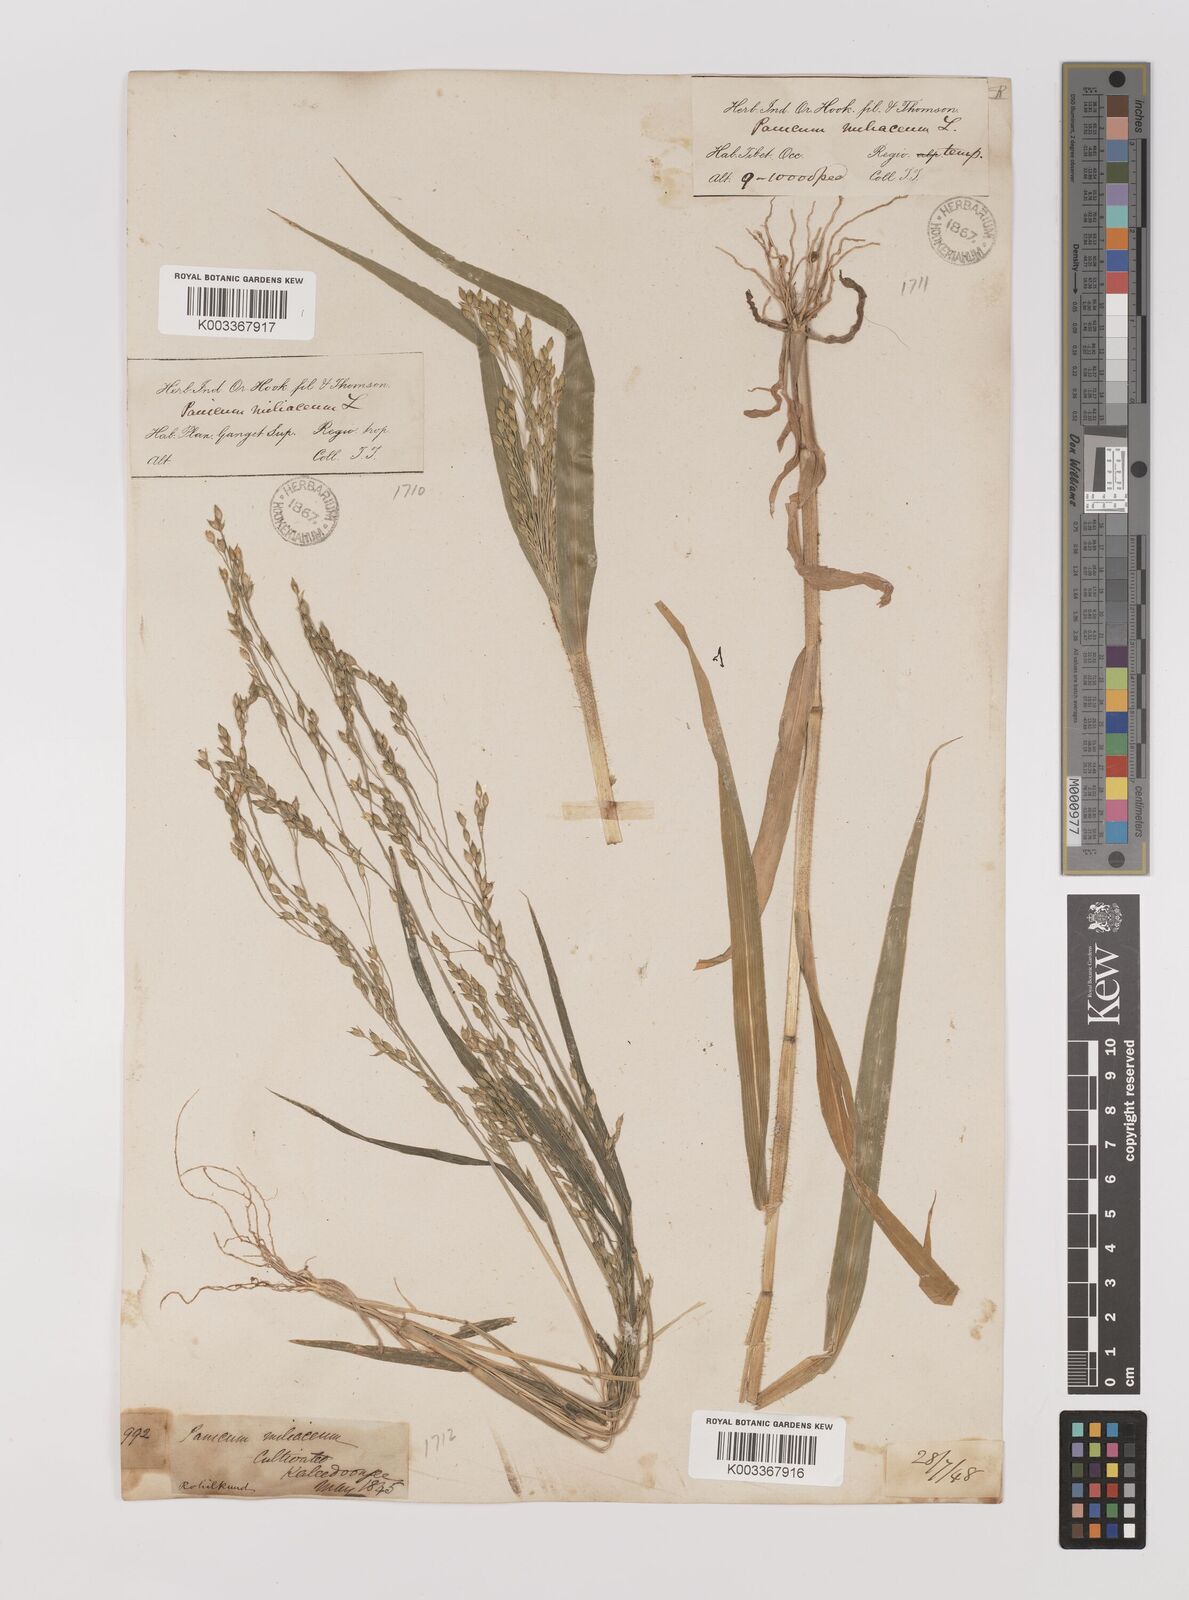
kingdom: Plantae
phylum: Tracheophyta
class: Liliopsida
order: Poales
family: Poaceae
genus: Panicum
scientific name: Panicum miliaceum
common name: Common millet
